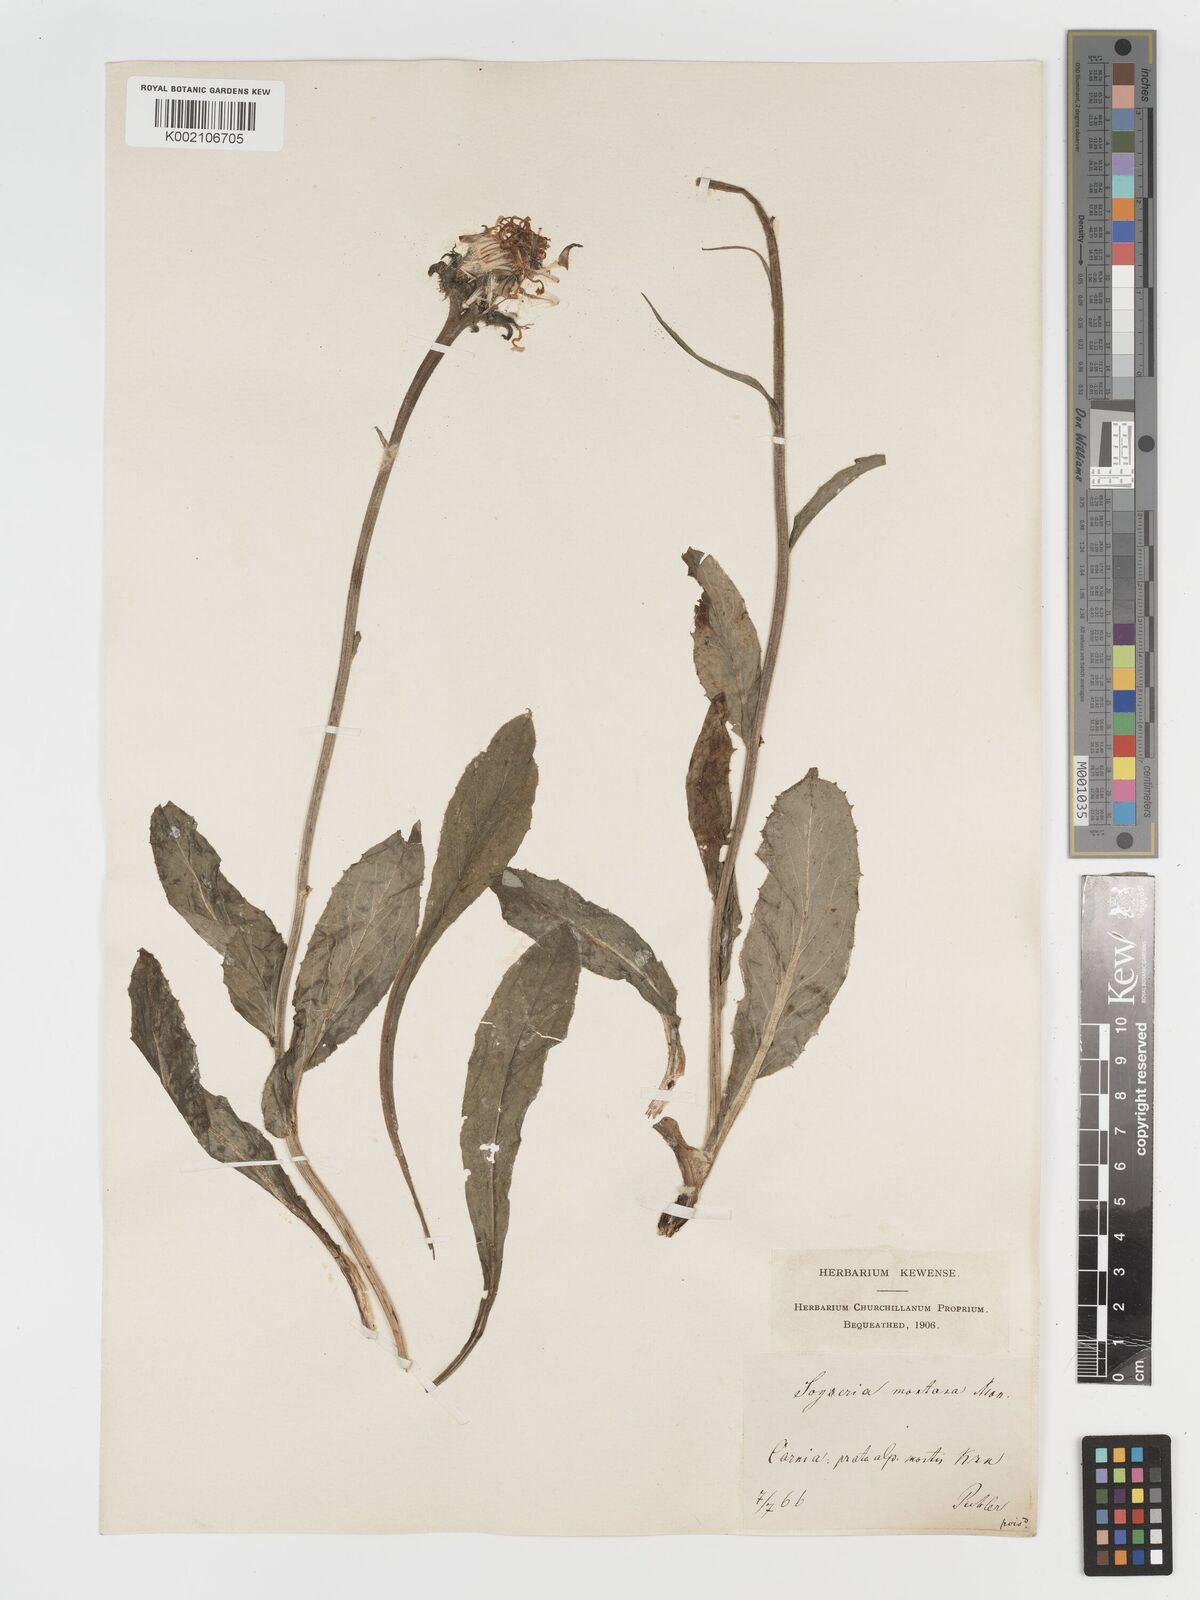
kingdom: Plantae
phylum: Tracheophyta
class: Magnoliopsida
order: Asterales
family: Asteraceae
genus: Crepis
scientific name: Crepis pontana
